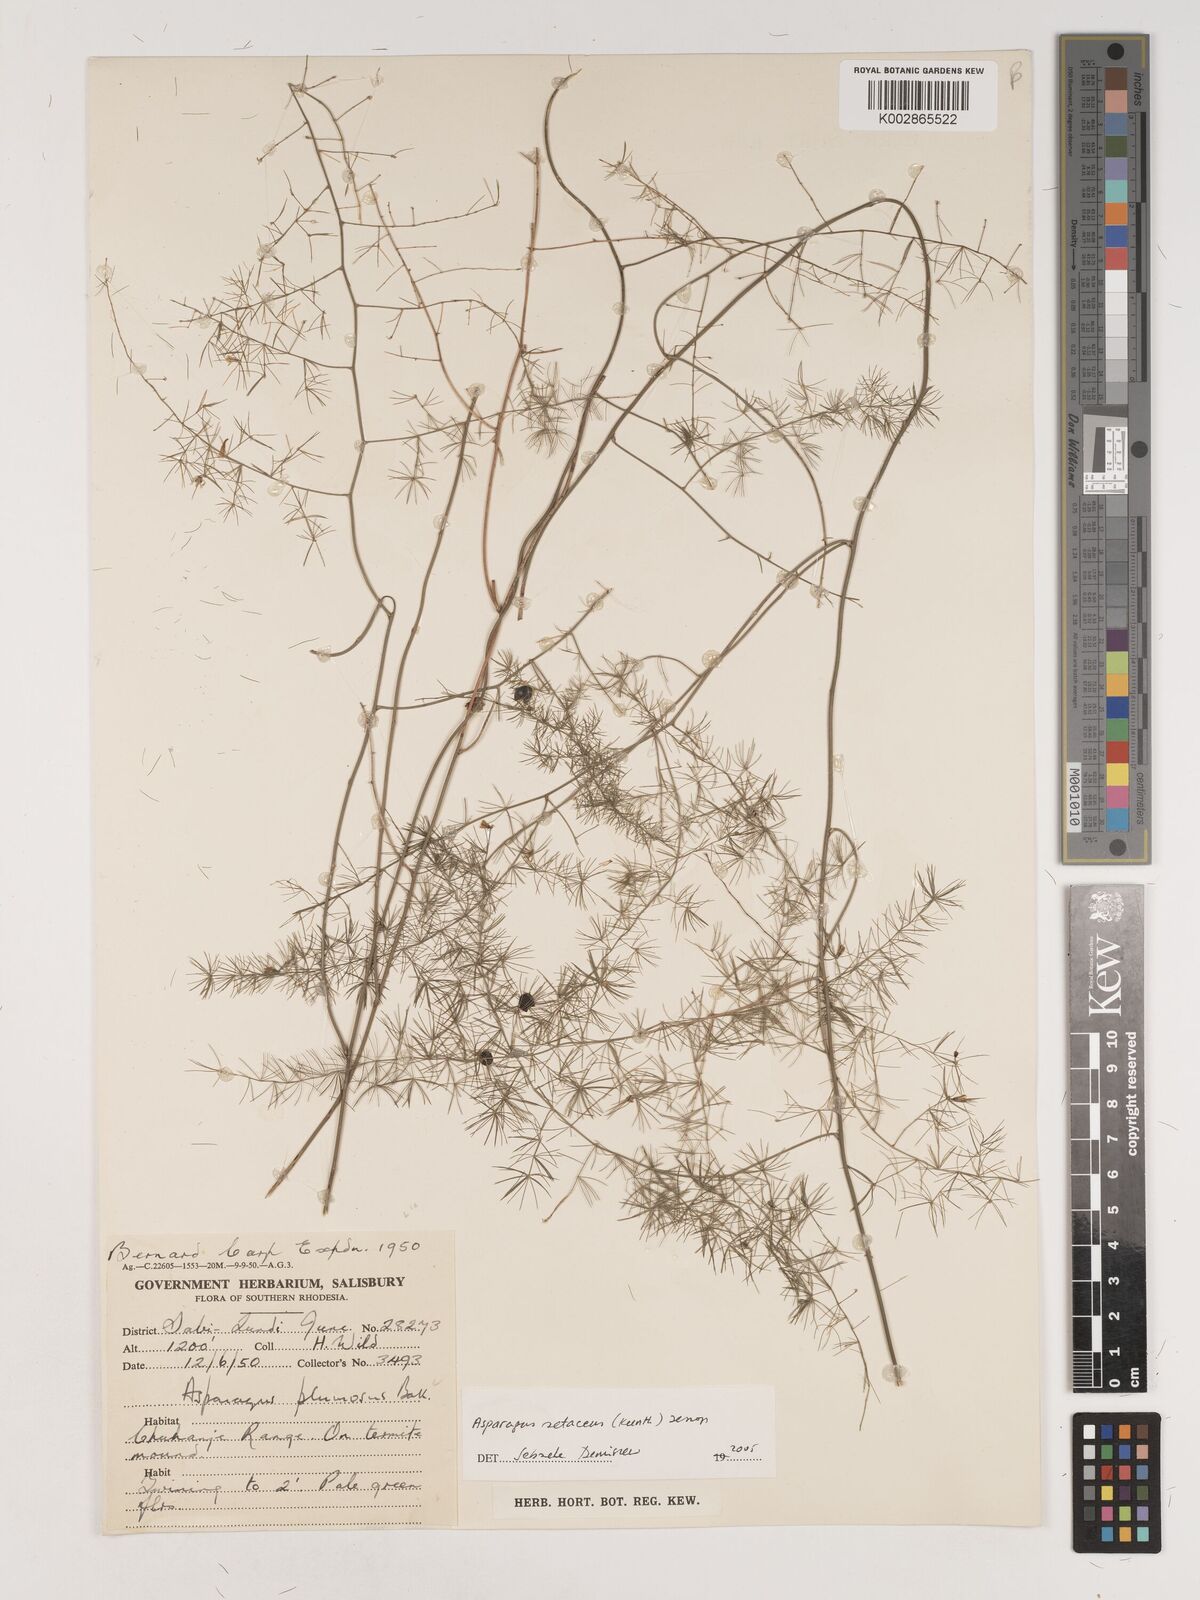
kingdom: Plantae
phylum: Tracheophyta
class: Liliopsida
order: Asparagales
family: Asparagaceae
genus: Asparagus
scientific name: Asparagus setaceus
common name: Common asparagus fern
